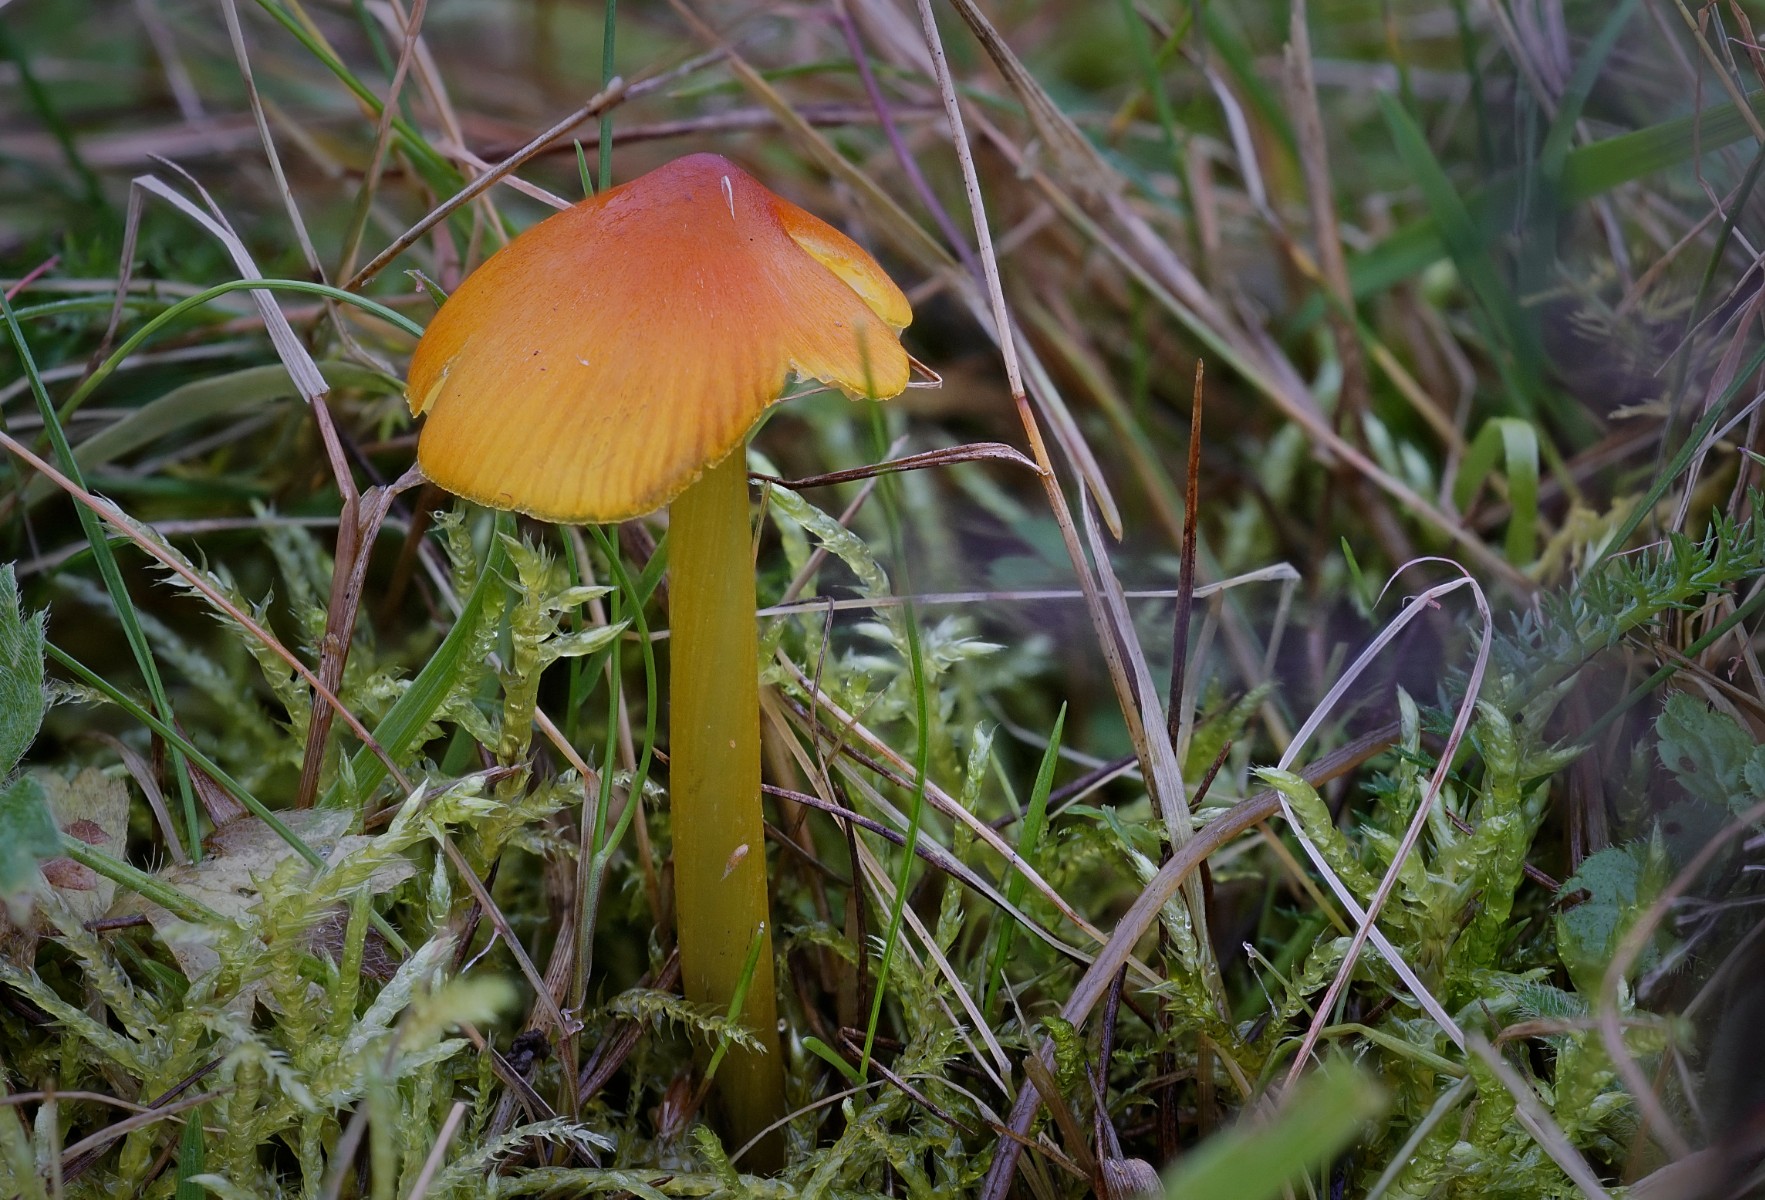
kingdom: Fungi
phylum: Basidiomycota
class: Agaricomycetes
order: Agaricales
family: Hygrophoraceae
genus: Hygrocybe
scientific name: Hygrocybe conica
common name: kegle-vokshat
